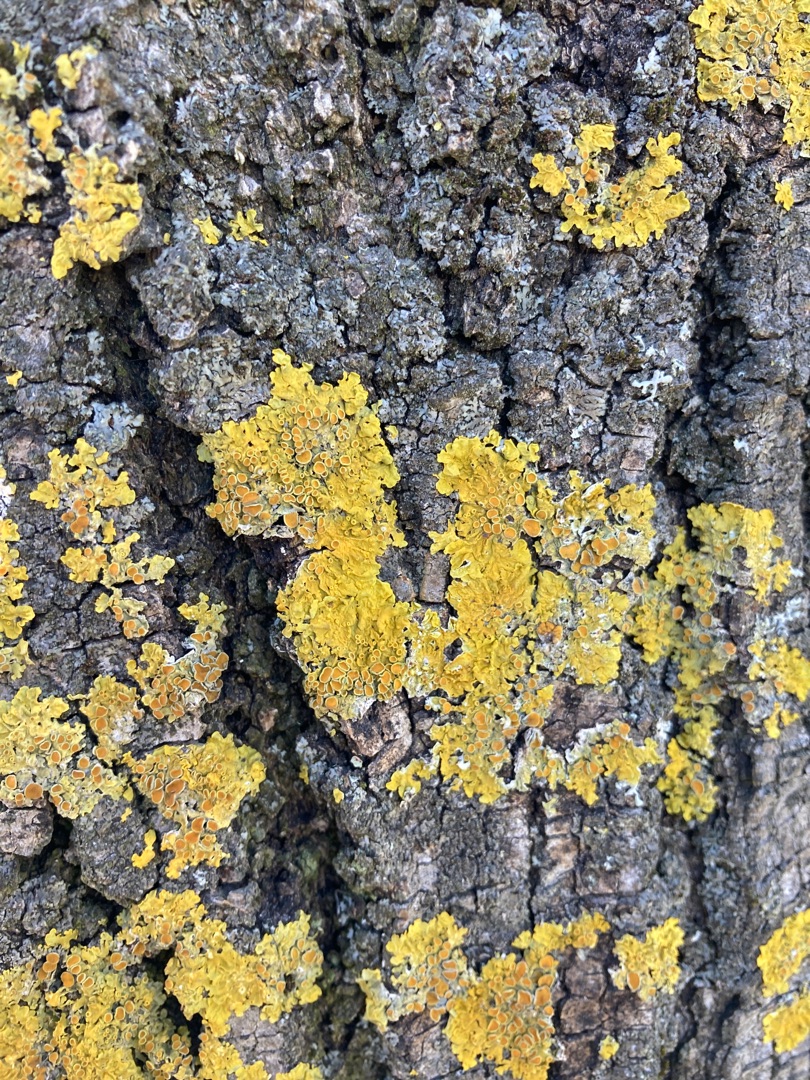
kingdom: Fungi
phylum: Ascomycota
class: Lecanoromycetes
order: Teloschistales
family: Teloschistaceae
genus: Xanthoria
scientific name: Xanthoria parietina
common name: Almindelig væggelav
